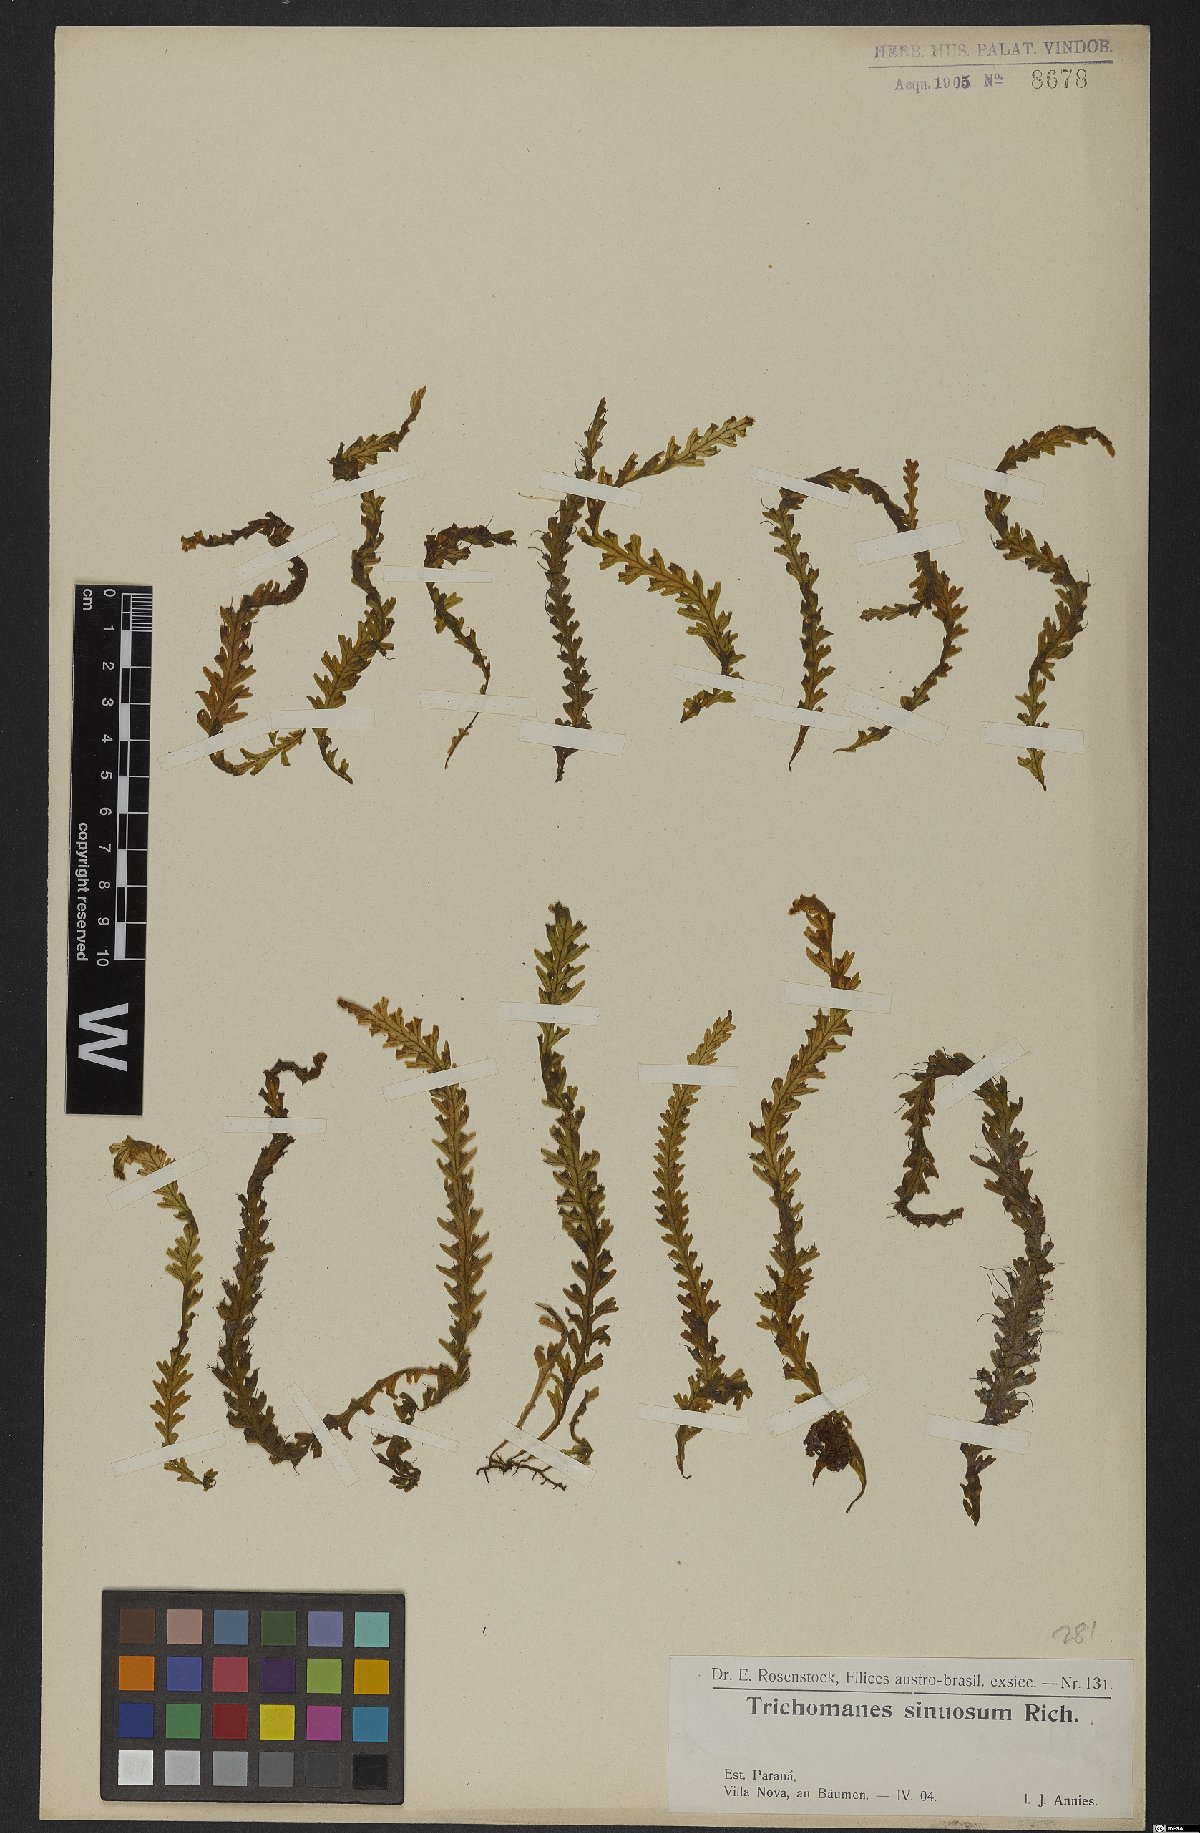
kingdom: Plantae
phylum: Tracheophyta
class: Polypodiopsida
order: Hymenophyllales
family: Hymenophyllaceae
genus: Trichomanes
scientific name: Trichomanes polypodioides
